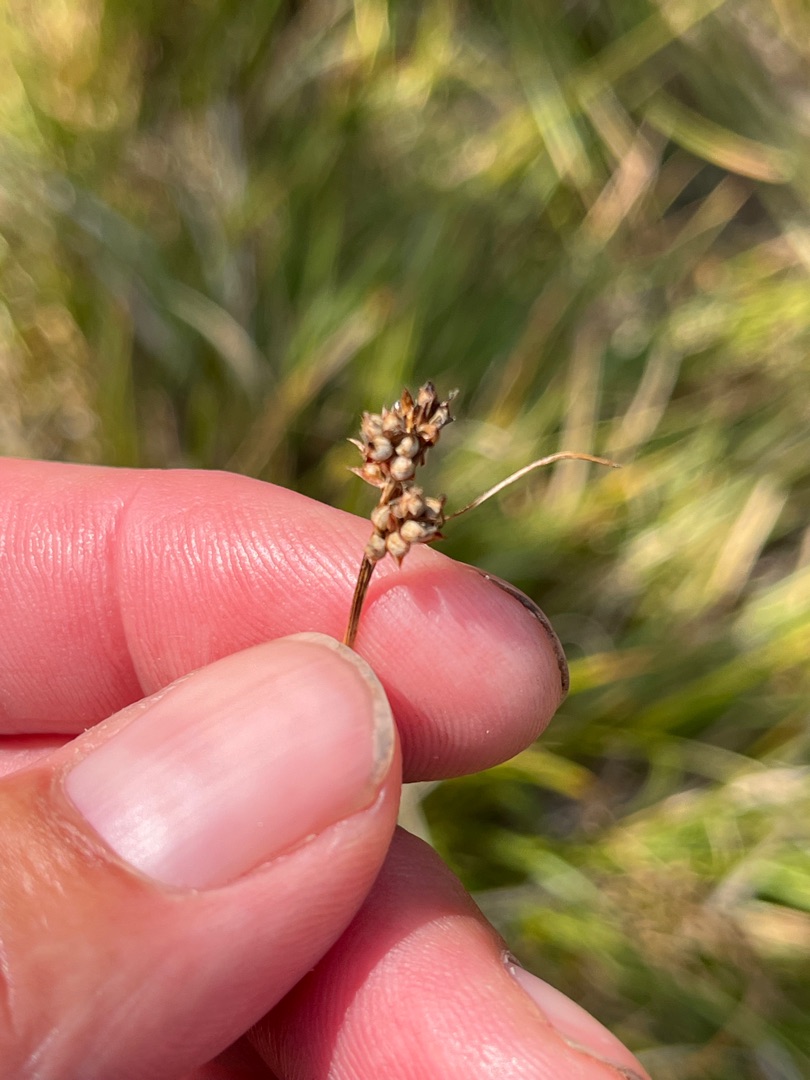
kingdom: Plantae
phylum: Tracheophyta
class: Liliopsida
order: Poales
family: Cyperaceae
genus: Carex
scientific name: Carex pilulifera
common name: Pille-star
